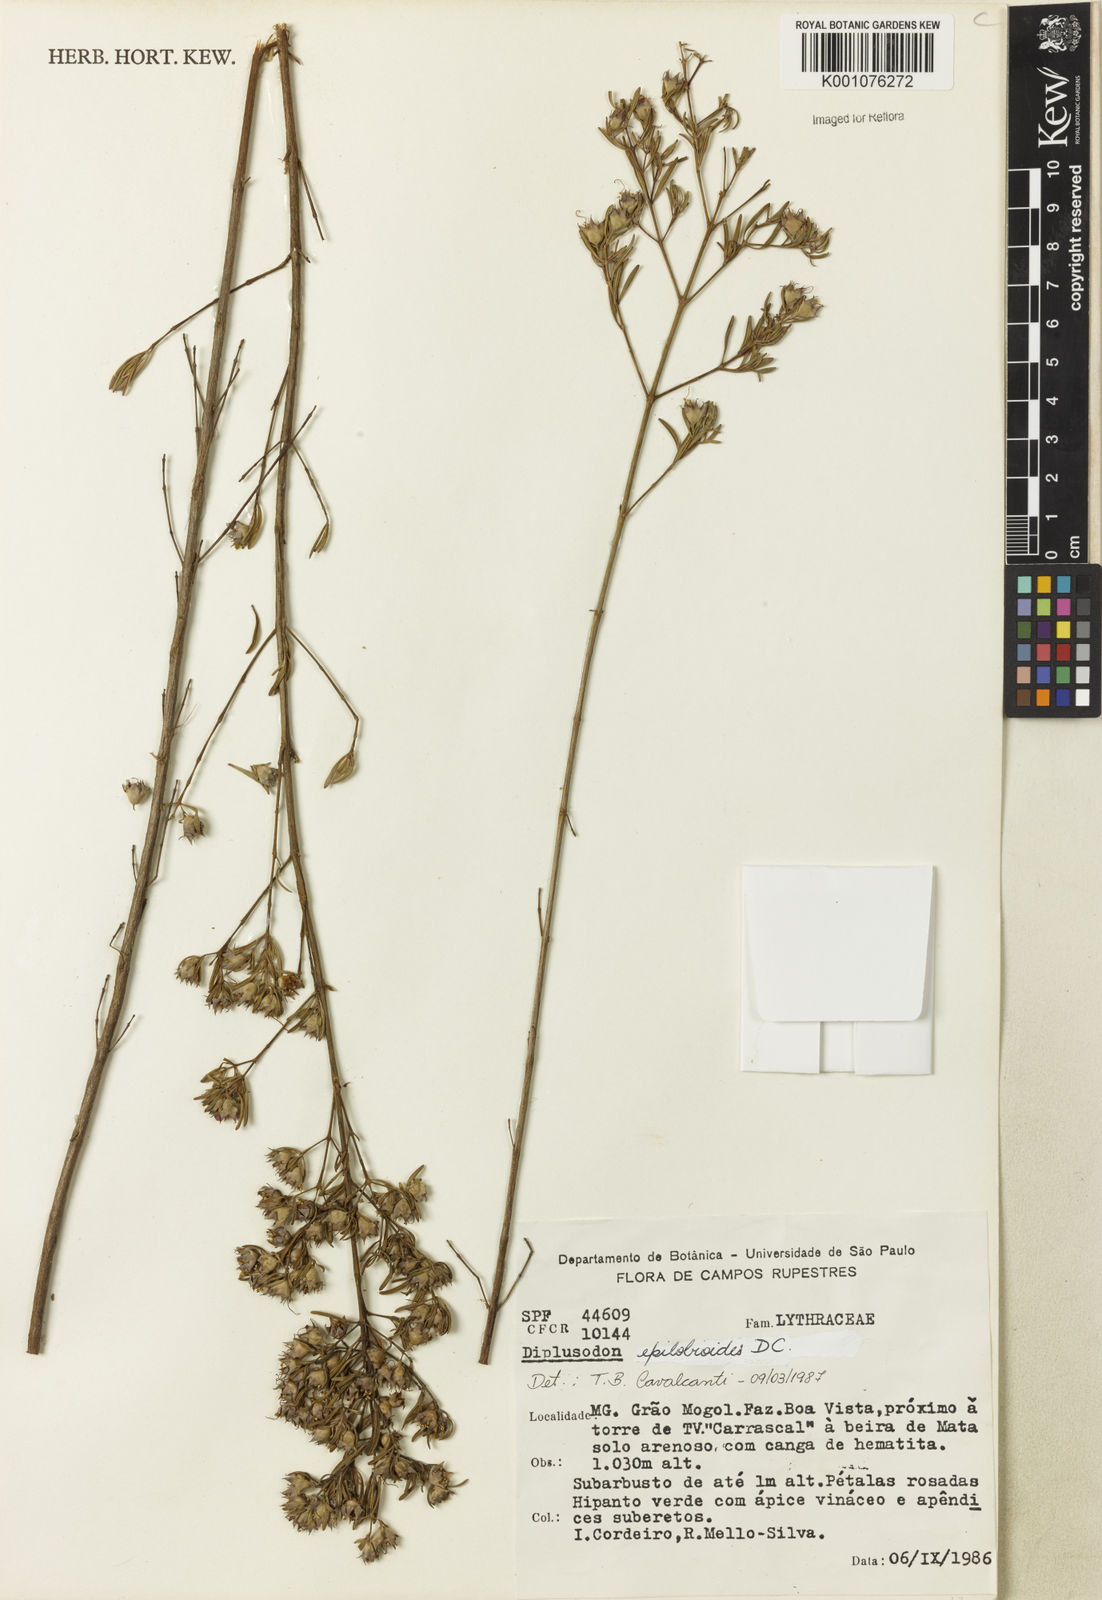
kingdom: Plantae
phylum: Tracheophyta
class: Magnoliopsida
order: Myrtales
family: Lythraceae
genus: Diplusodon
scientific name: Diplusodon epilobioides
